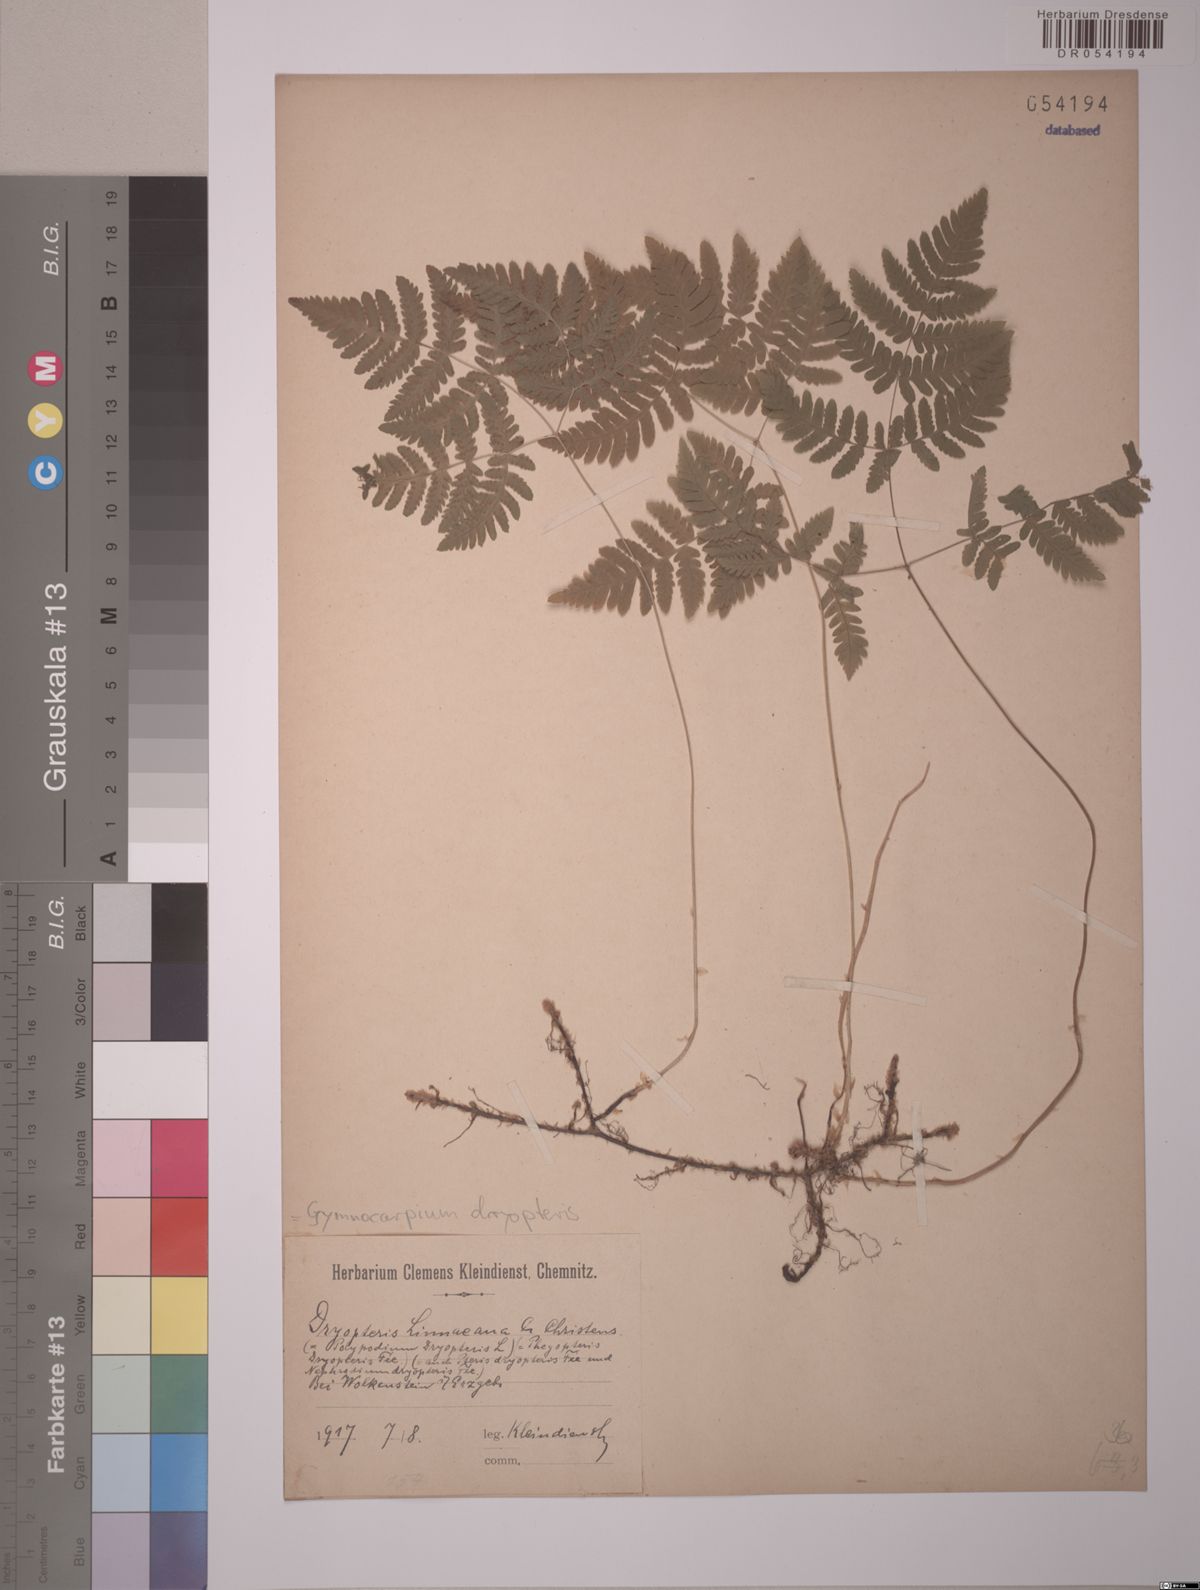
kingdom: Plantae
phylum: Tracheophyta
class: Polypodiopsida
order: Polypodiales
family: Cystopteridaceae
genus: Gymnocarpium
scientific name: Gymnocarpium dryopteris
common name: Oak fern
